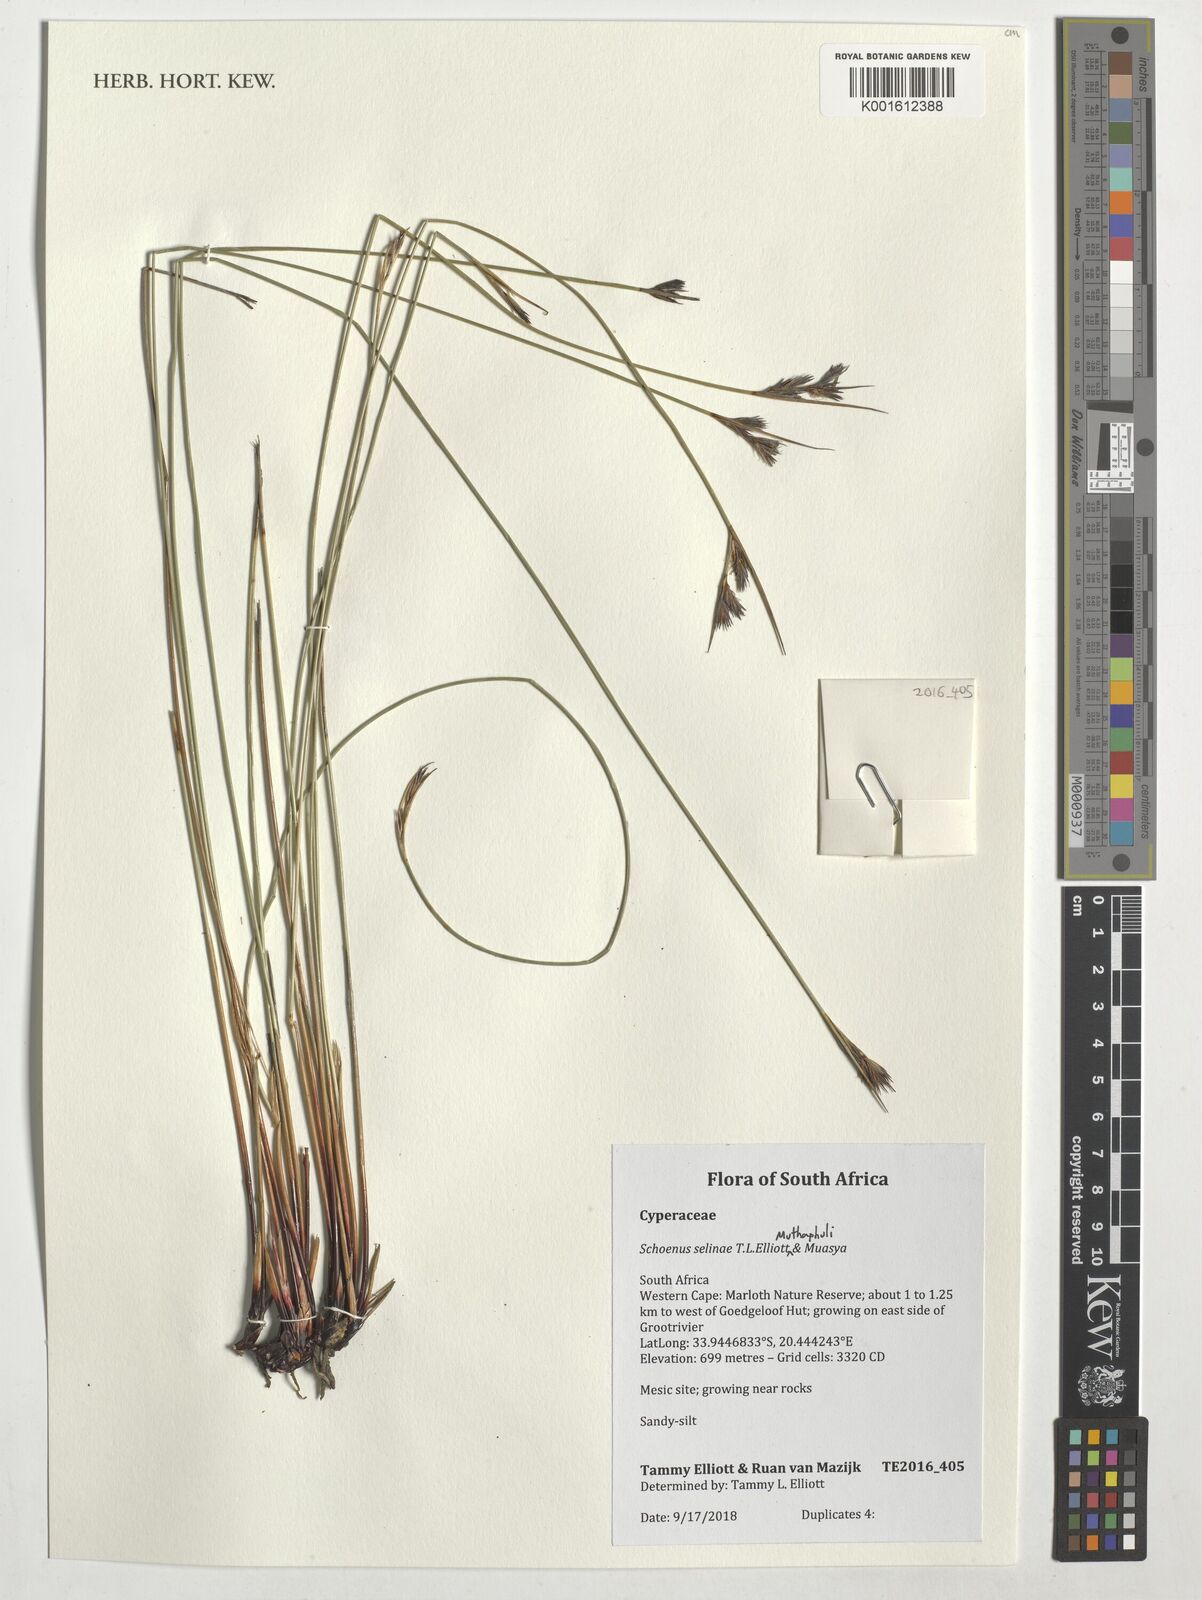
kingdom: Plantae
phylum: Tracheophyta
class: Liliopsida
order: Poales
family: Cyperaceae
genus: Schoenus
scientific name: Schoenus
